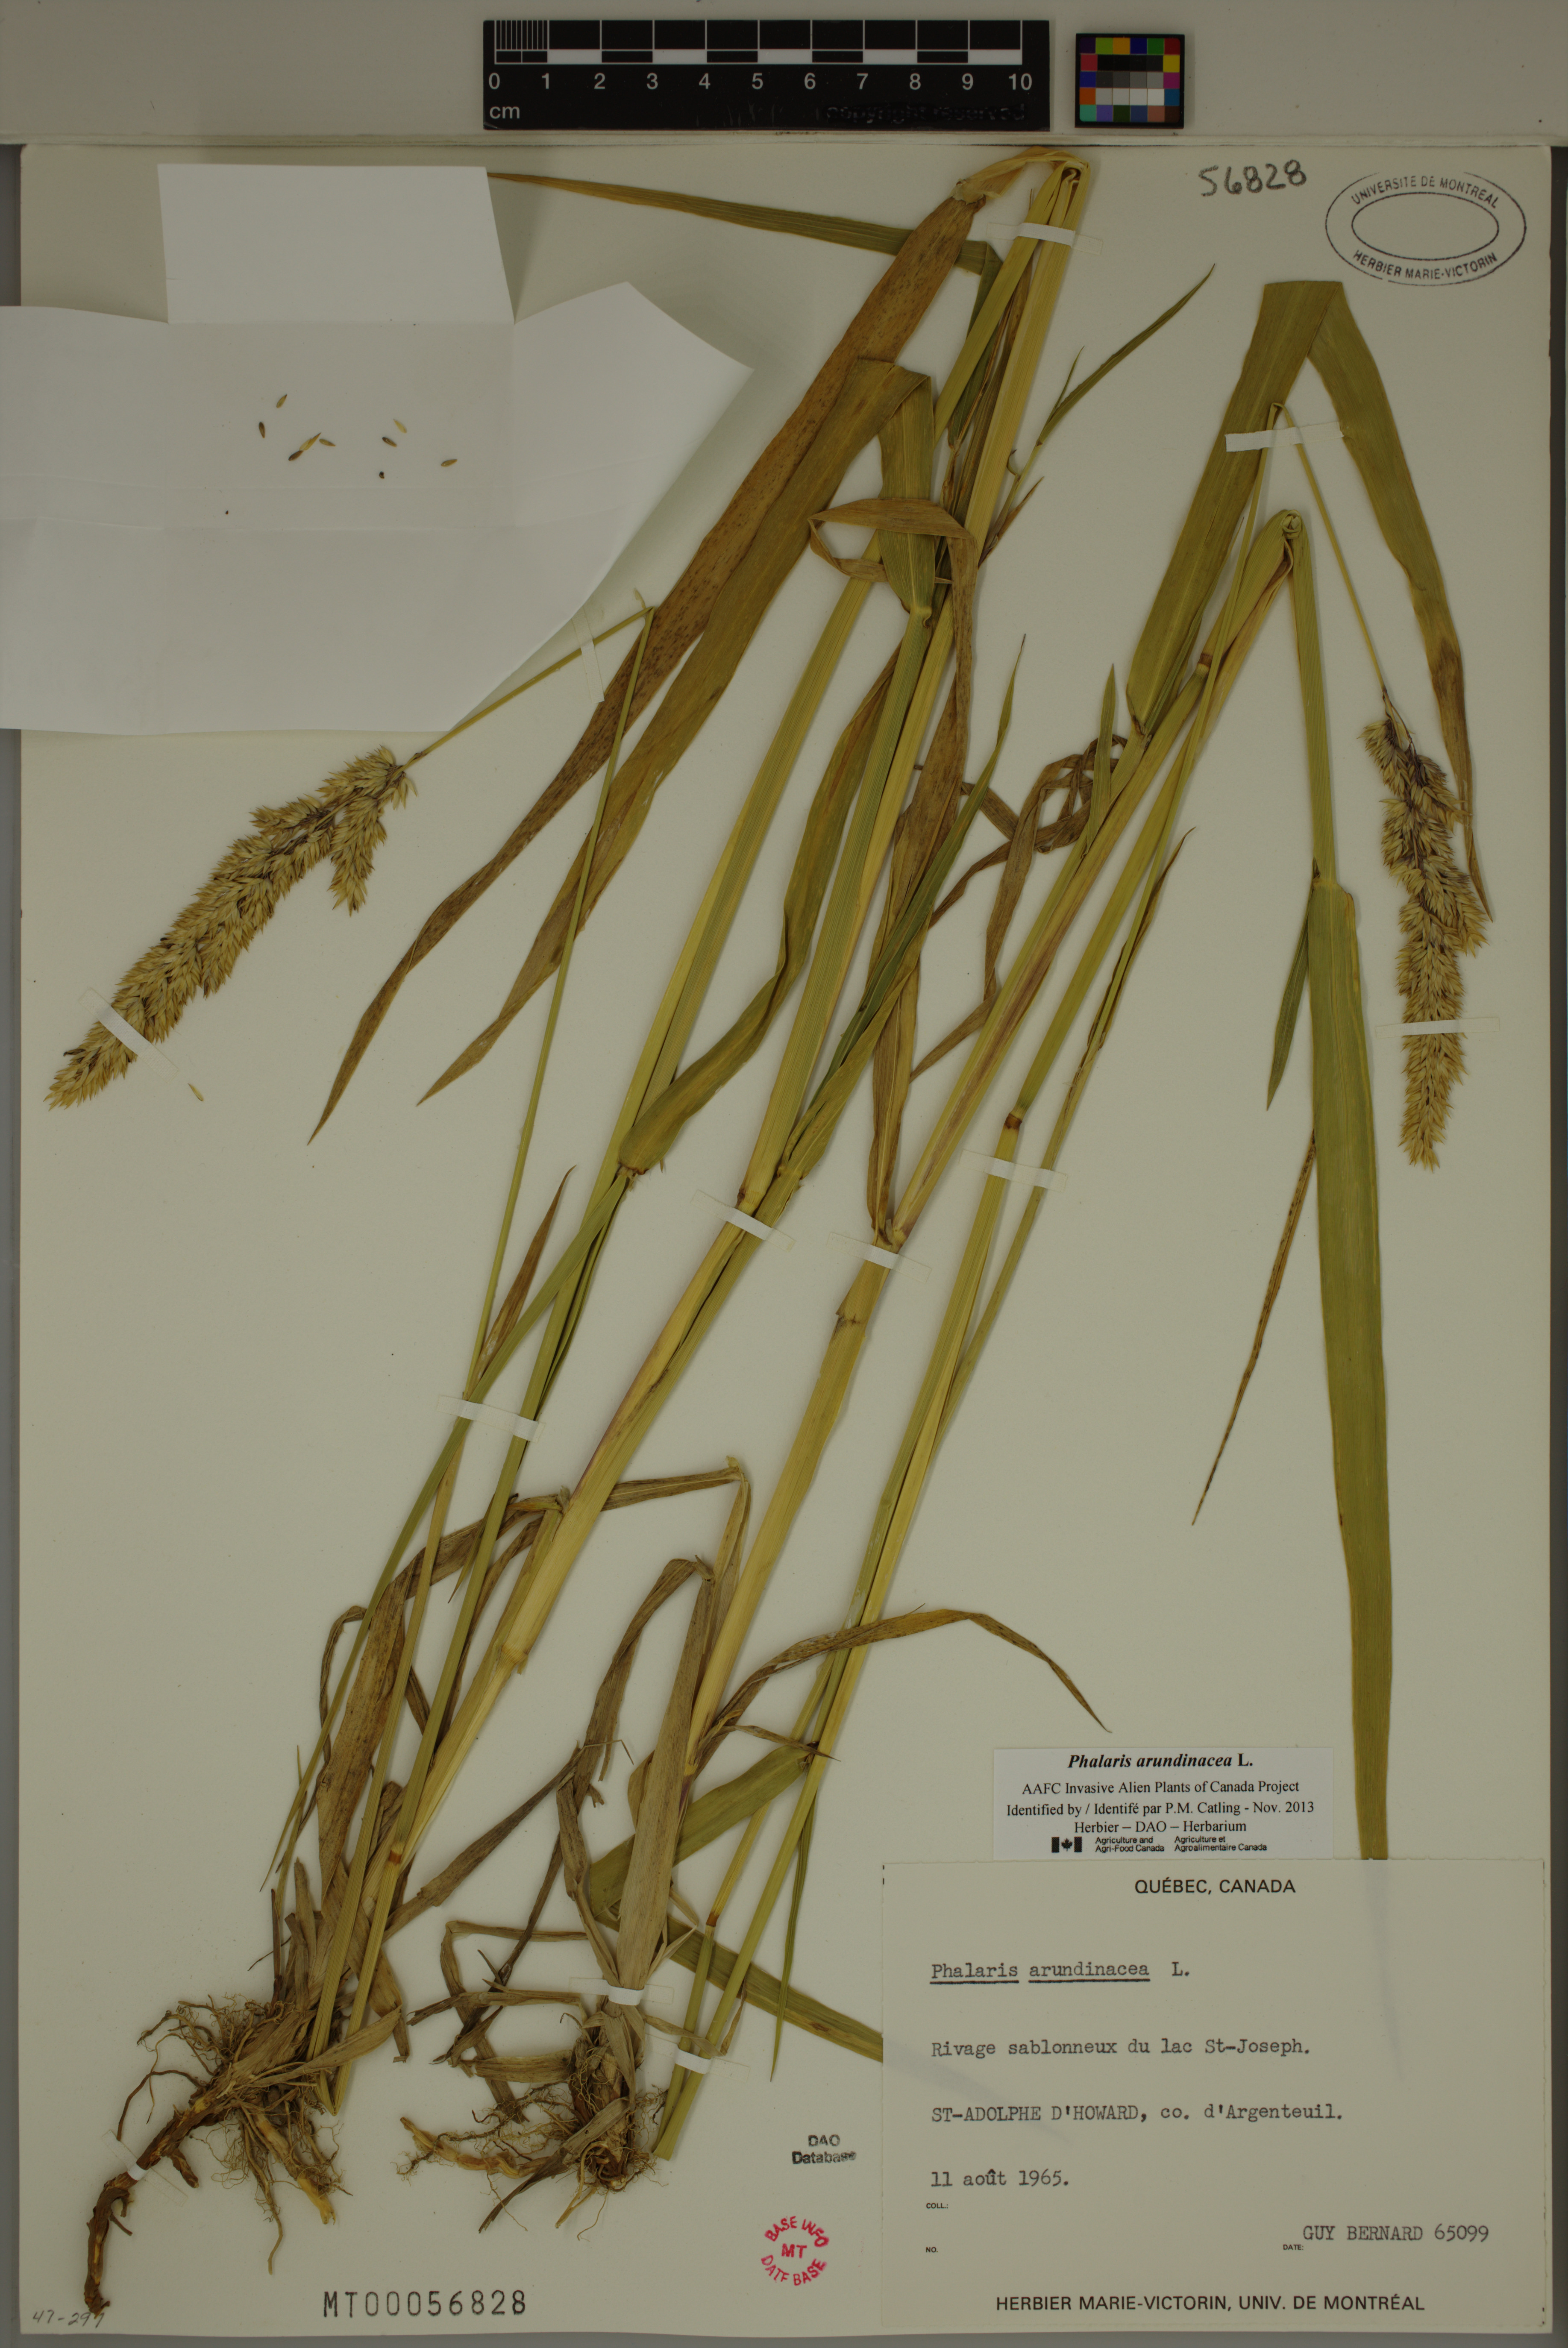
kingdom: Plantae
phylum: Tracheophyta
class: Liliopsida
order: Poales
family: Poaceae
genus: Phalaris
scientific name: Phalaris arundinacea
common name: Reed canary-grass
